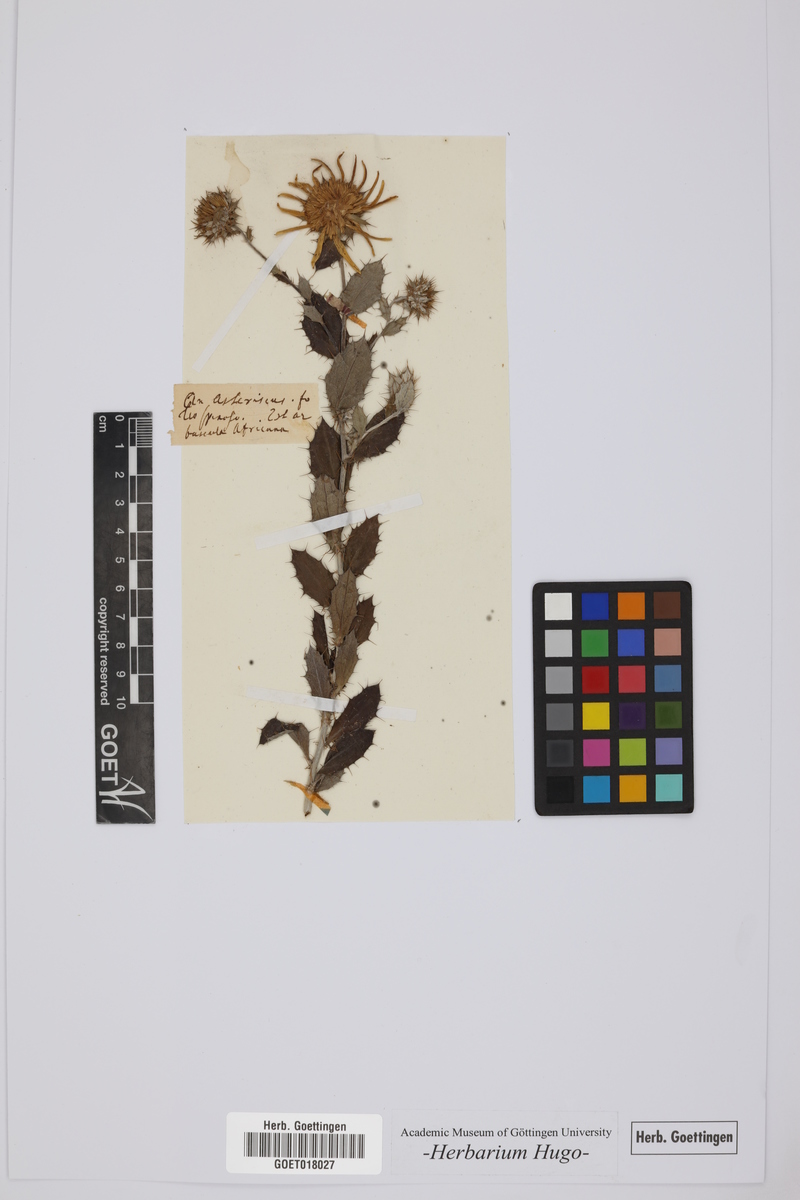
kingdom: Plantae
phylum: Tracheophyta
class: Magnoliopsida
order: Asterales
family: Asteraceae
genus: Asteriscus
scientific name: Asteriscus
